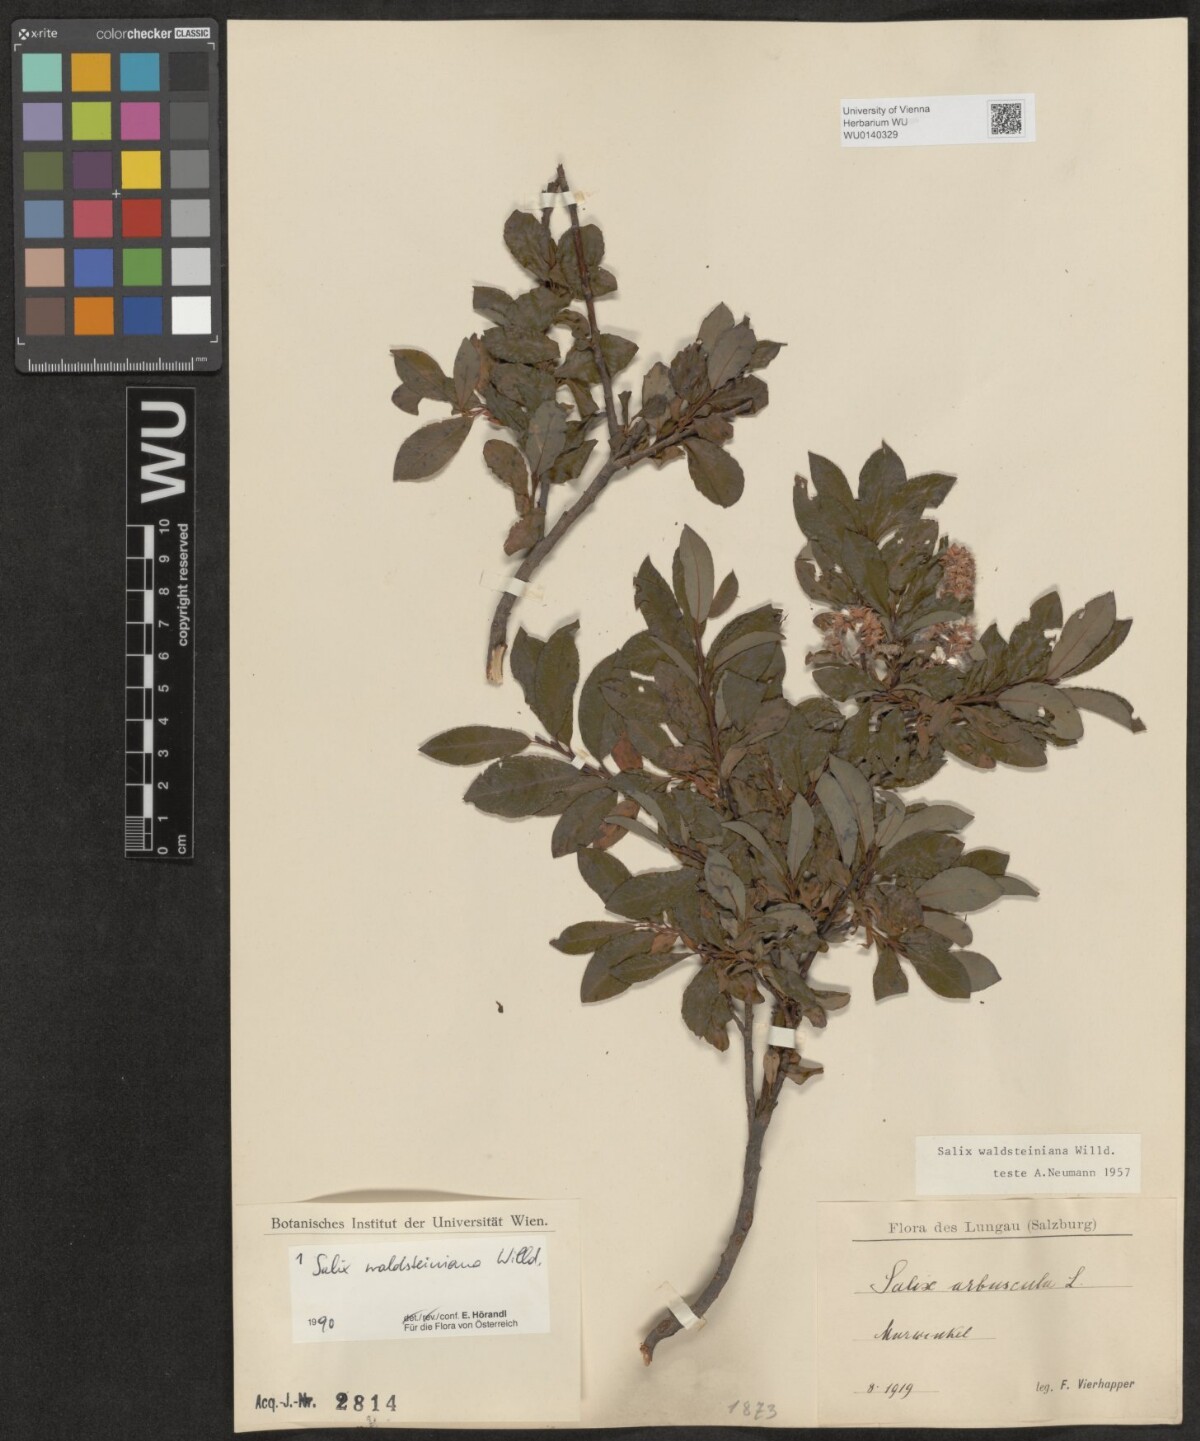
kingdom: Plantae
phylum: Tracheophyta
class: Magnoliopsida
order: Malpighiales
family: Salicaceae
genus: Salix
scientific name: Salix waldsteiniana
